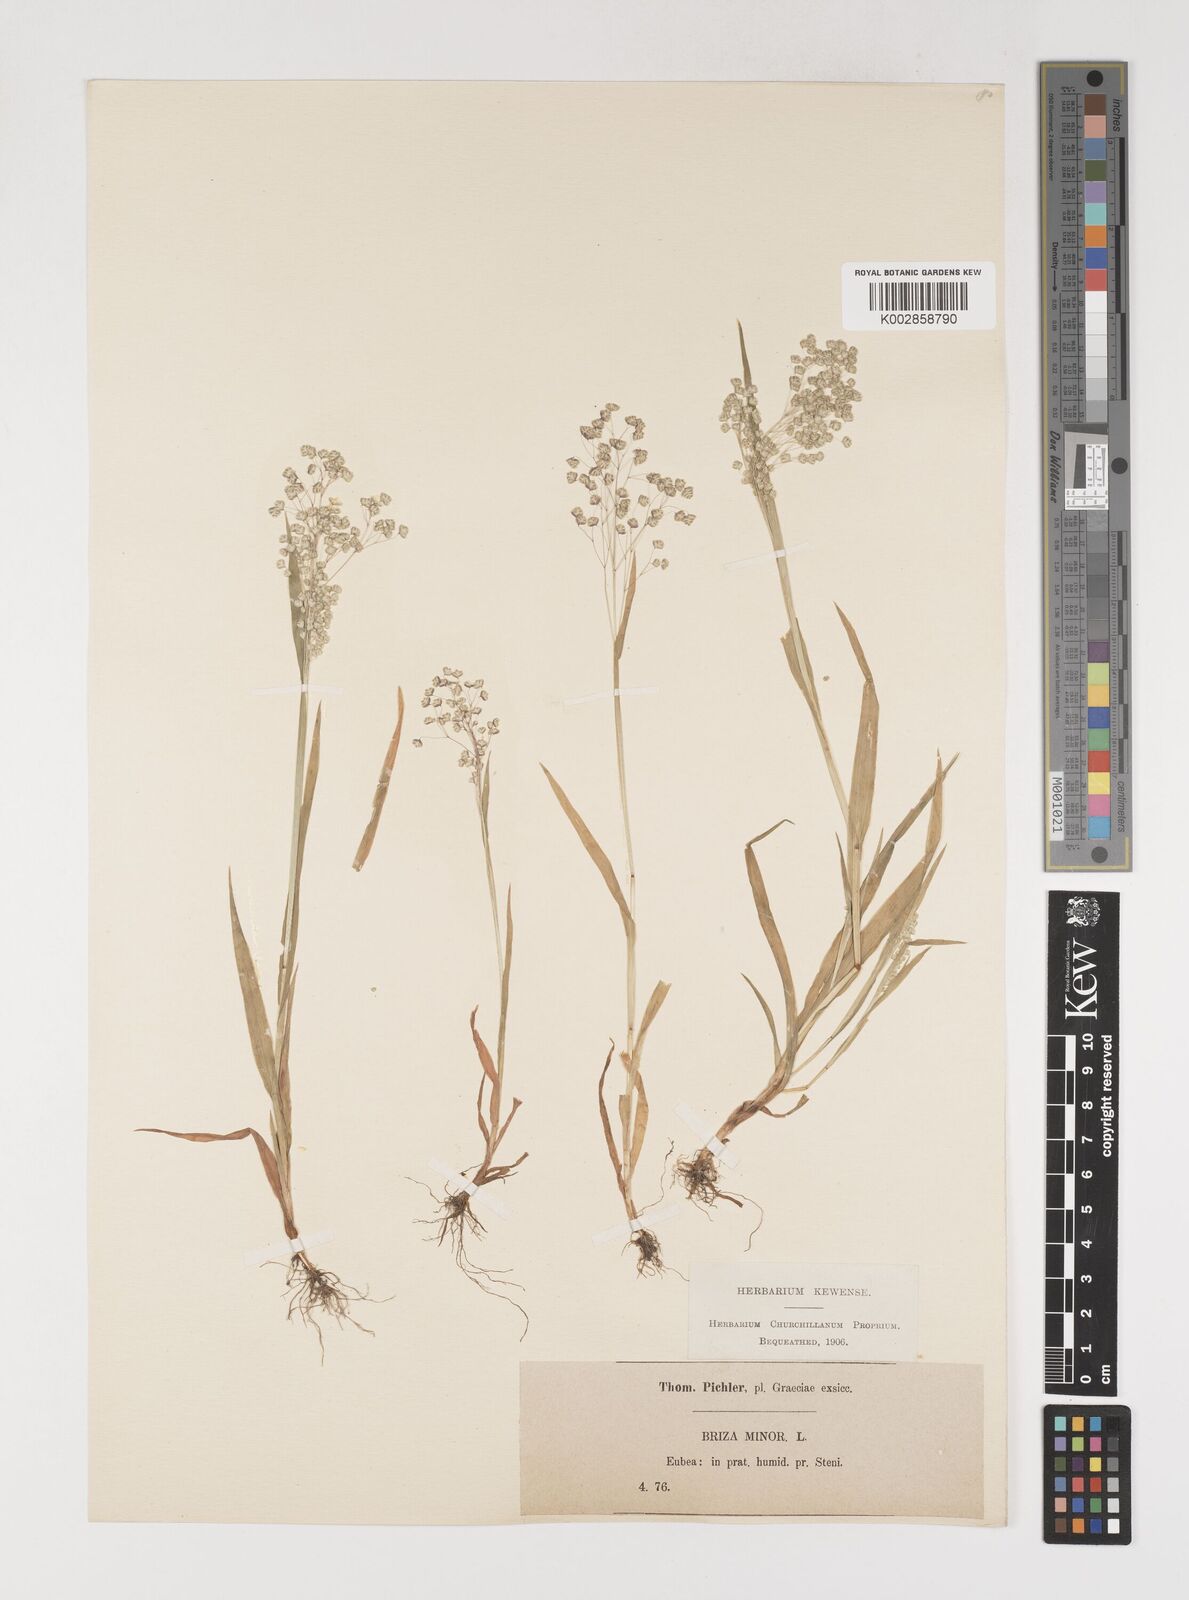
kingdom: Plantae
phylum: Tracheophyta
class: Liliopsida
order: Poales
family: Poaceae
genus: Briza
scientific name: Briza minor
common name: Lesser quaking-grass
